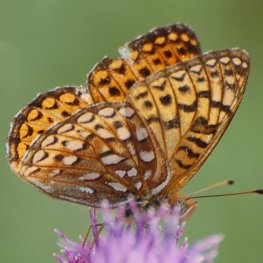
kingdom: Animalia
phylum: Arthropoda
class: Insecta
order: Lepidoptera
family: Nymphalidae
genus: Speyeria
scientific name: Speyeria atlantis
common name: Atlantis Fritillary
